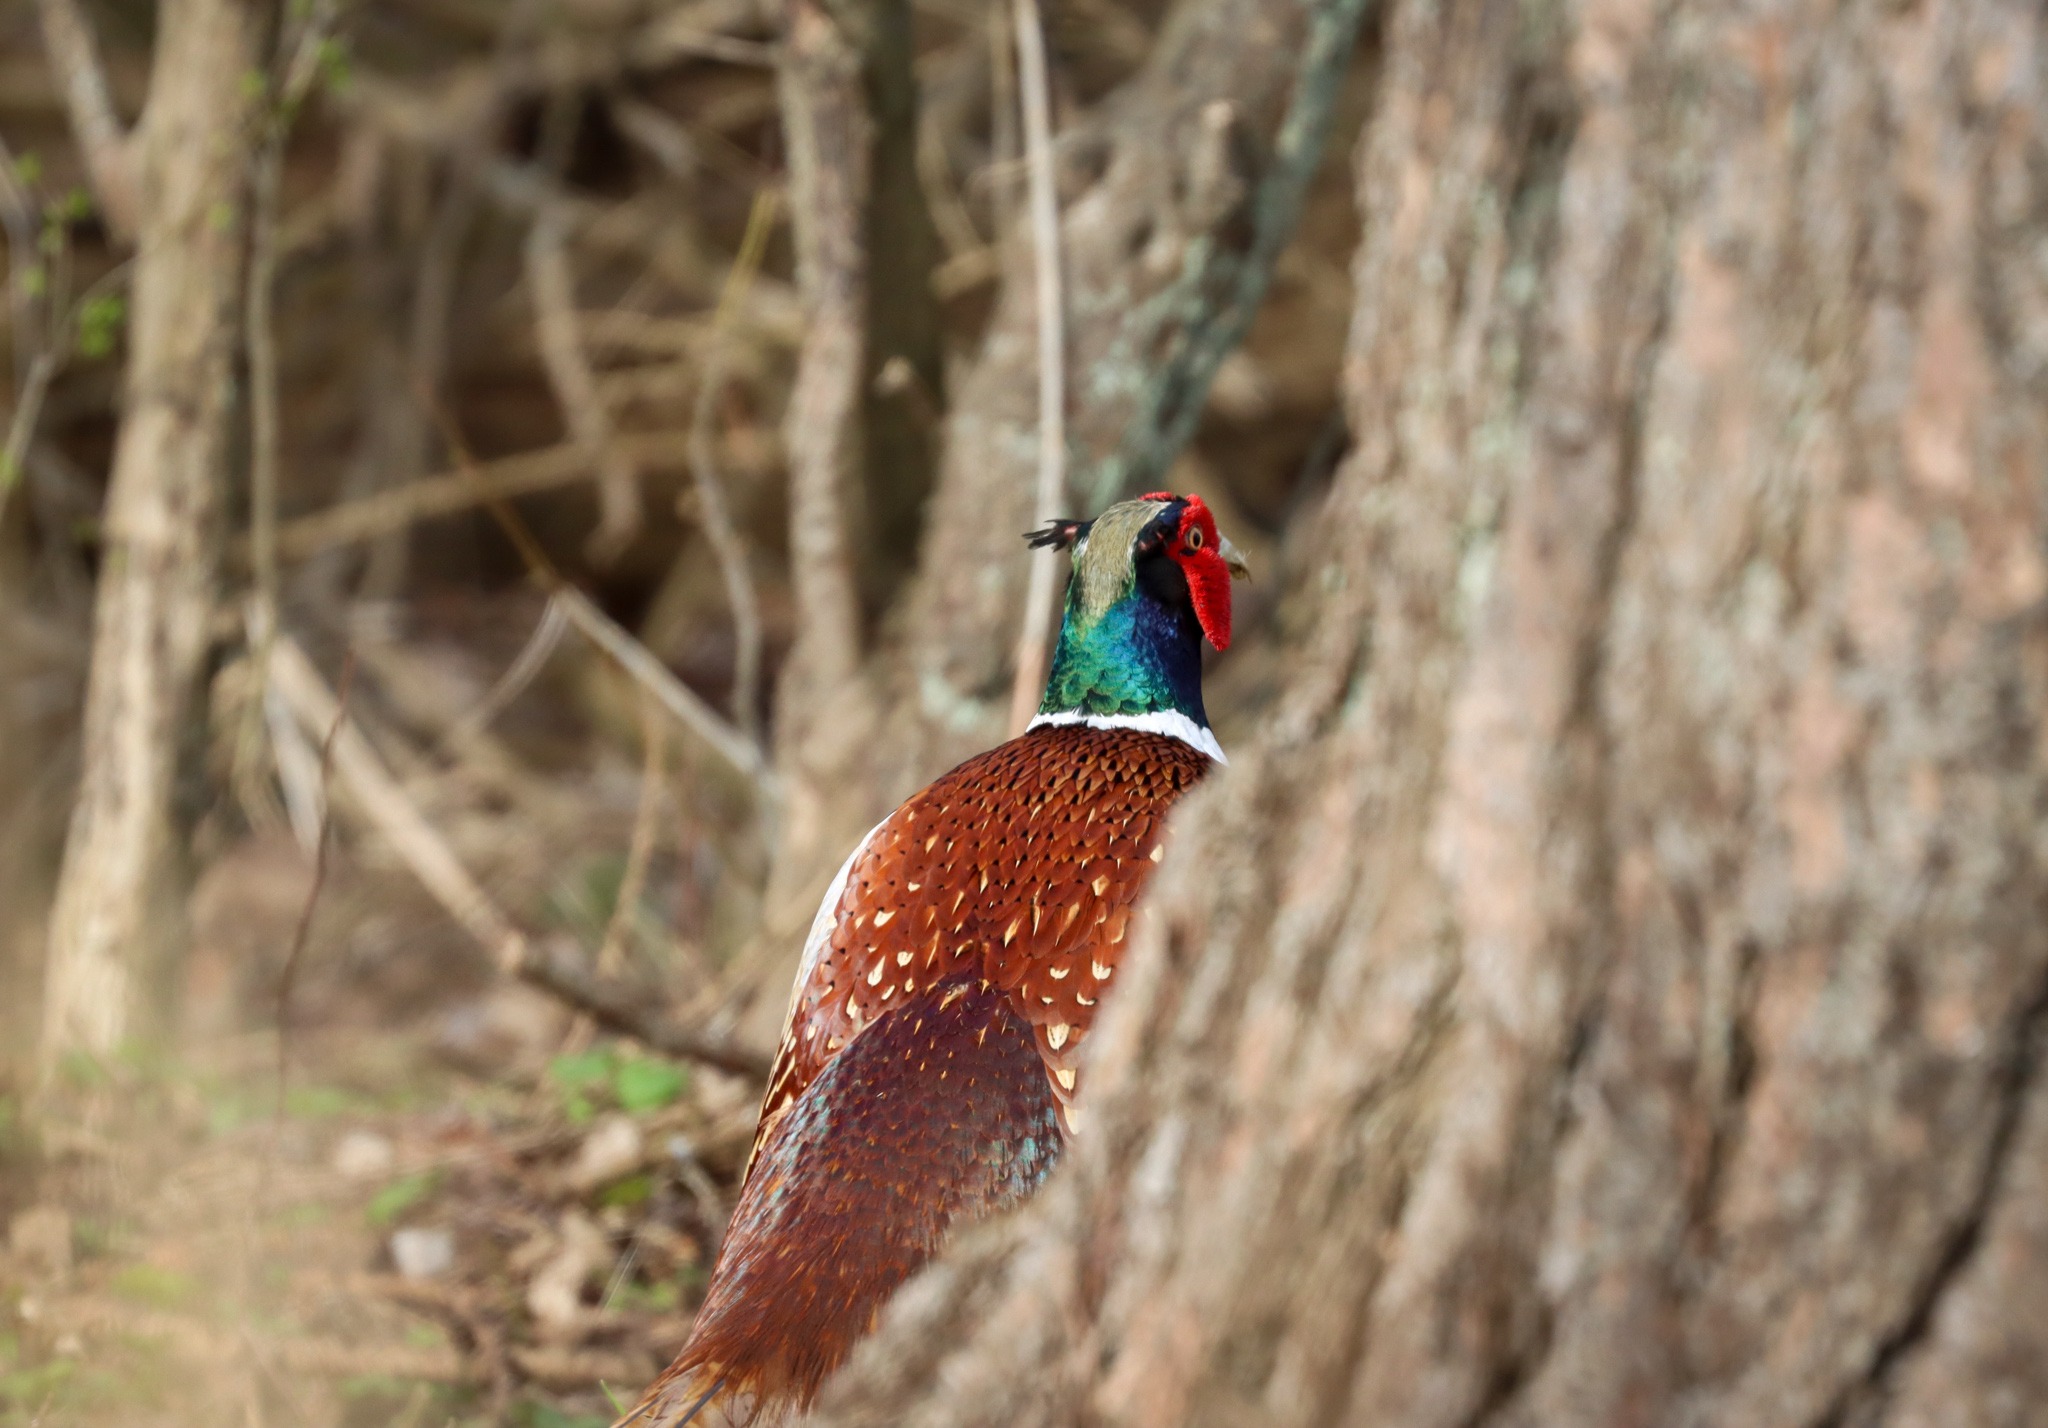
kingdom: Animalia
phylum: Chordata
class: Aves
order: Galliformes
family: Phasianidae
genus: Phasianus
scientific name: Phasianus colchicus
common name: Fasan
